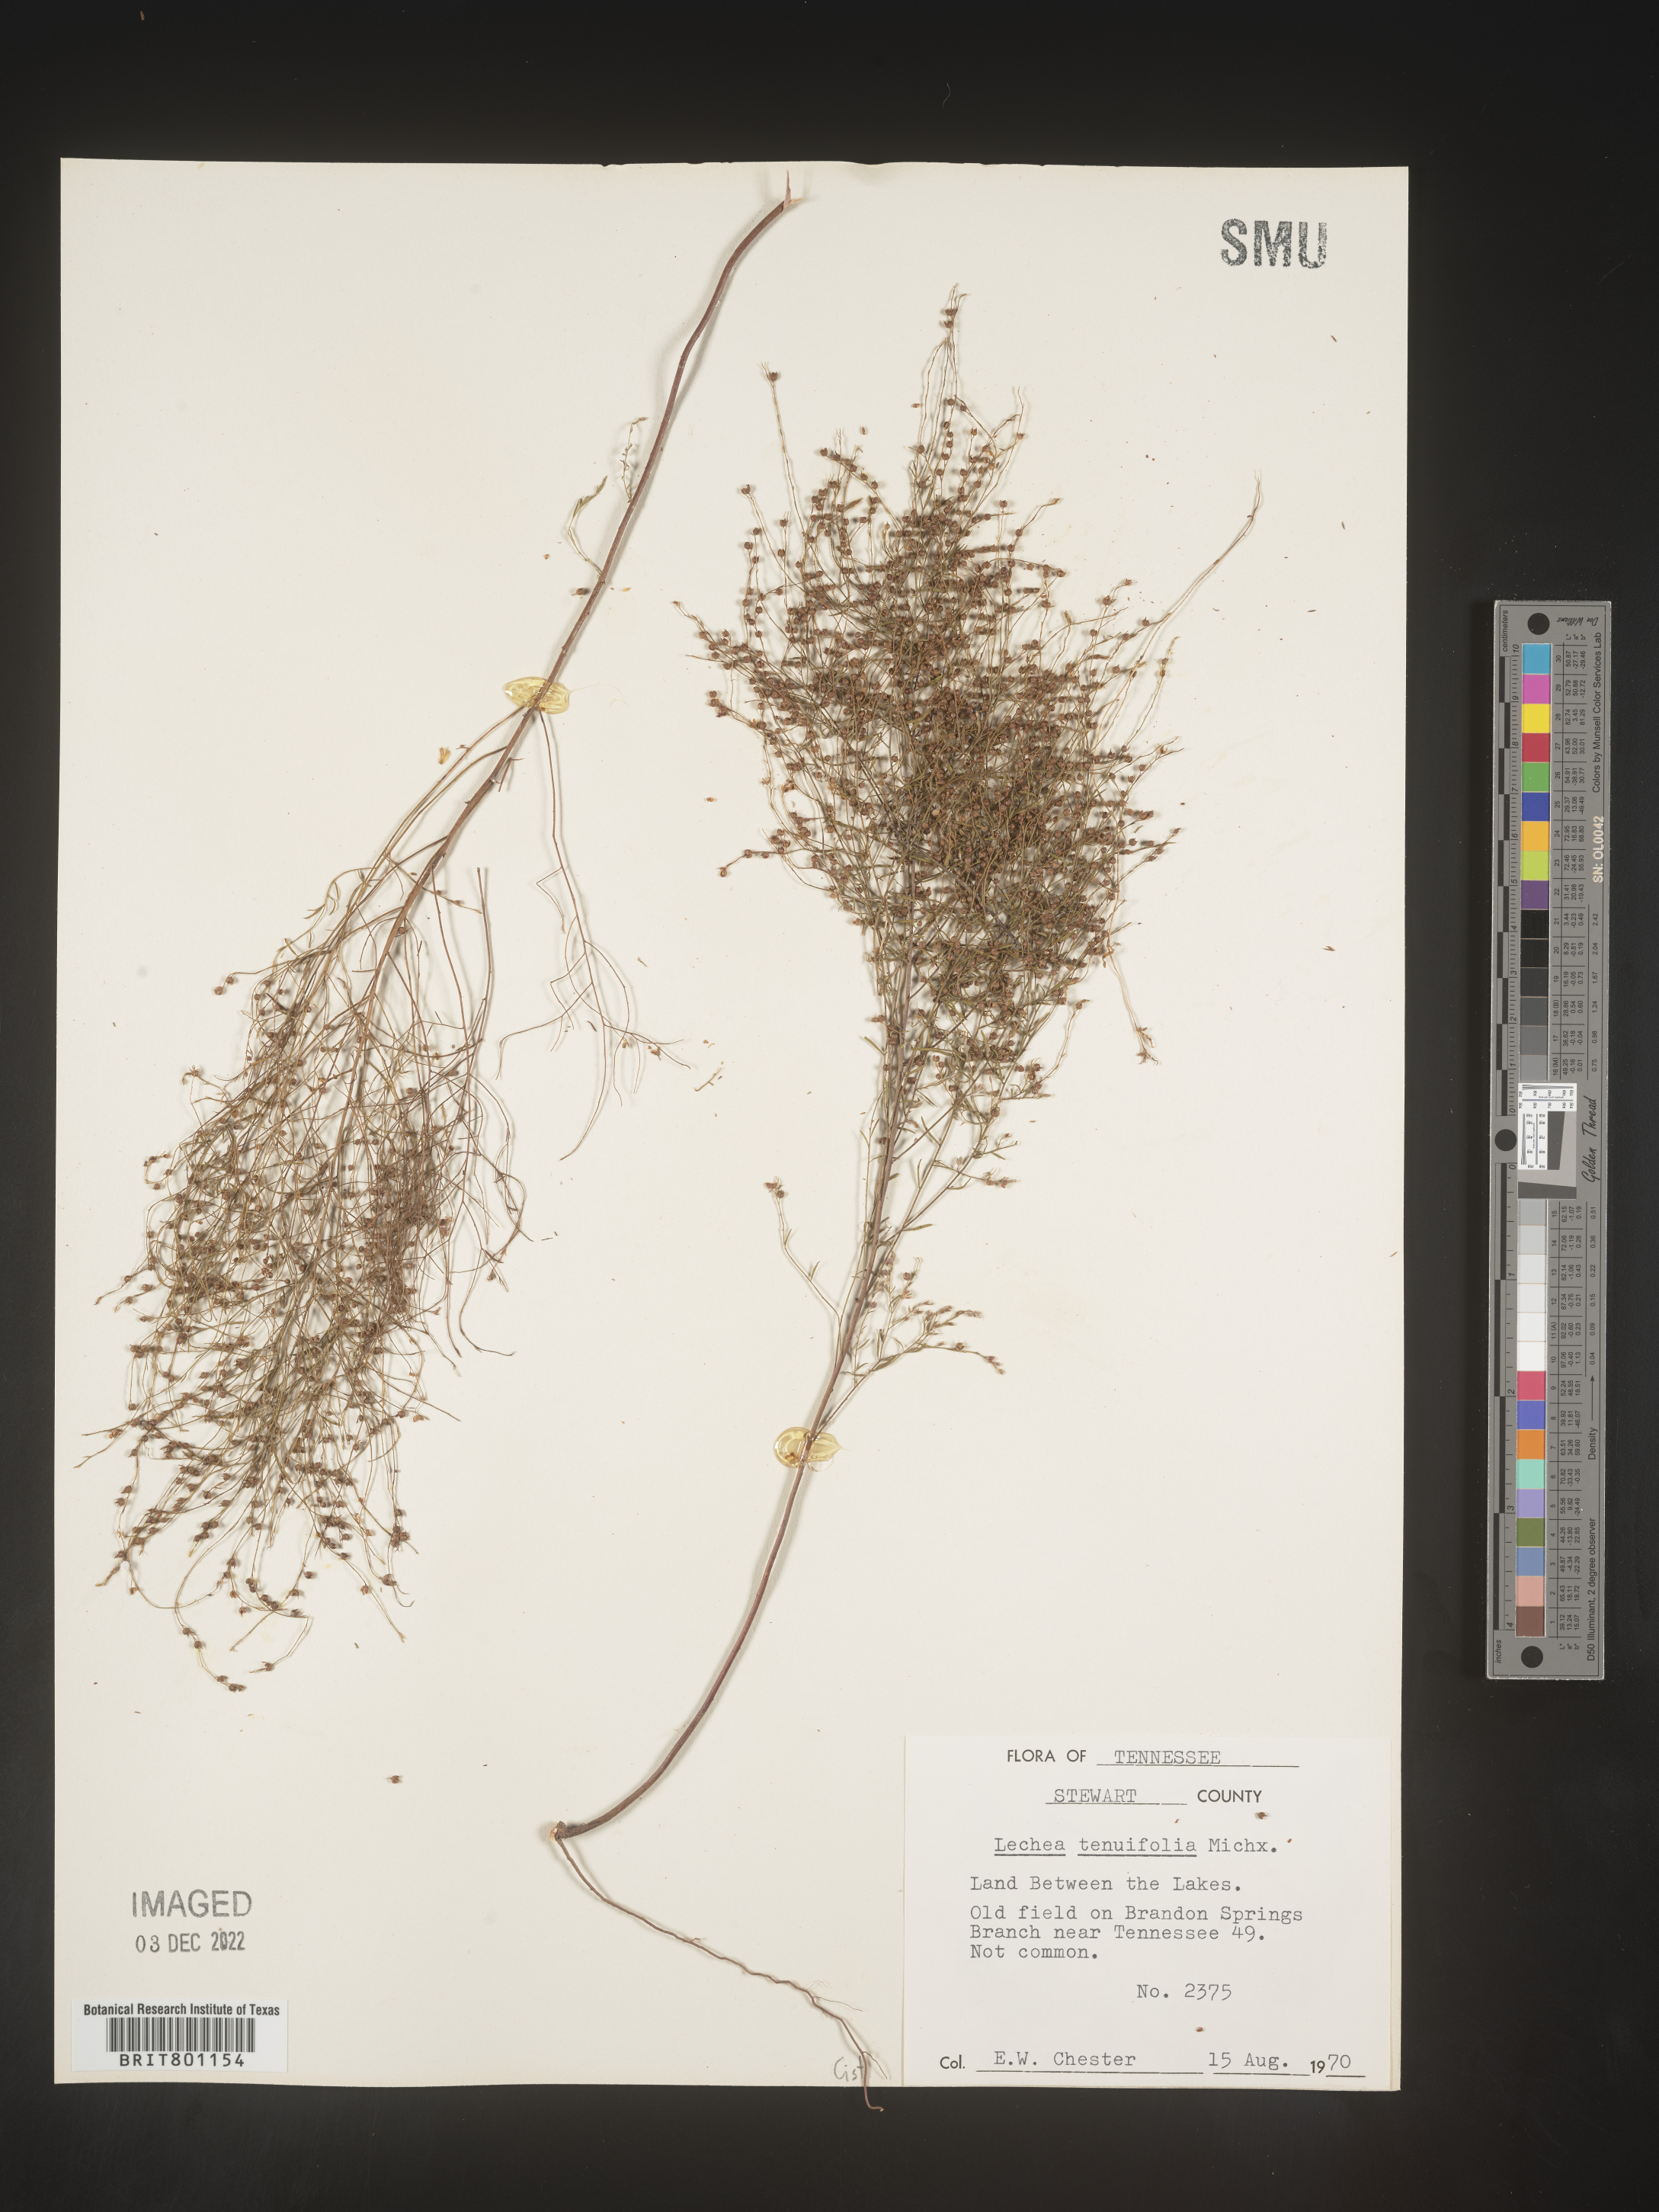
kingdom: Plantae
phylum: Tracheophyta
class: Magnoliopsida
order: Malvales
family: Cistaceae
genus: Lechea
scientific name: Lechea tenuifolia
